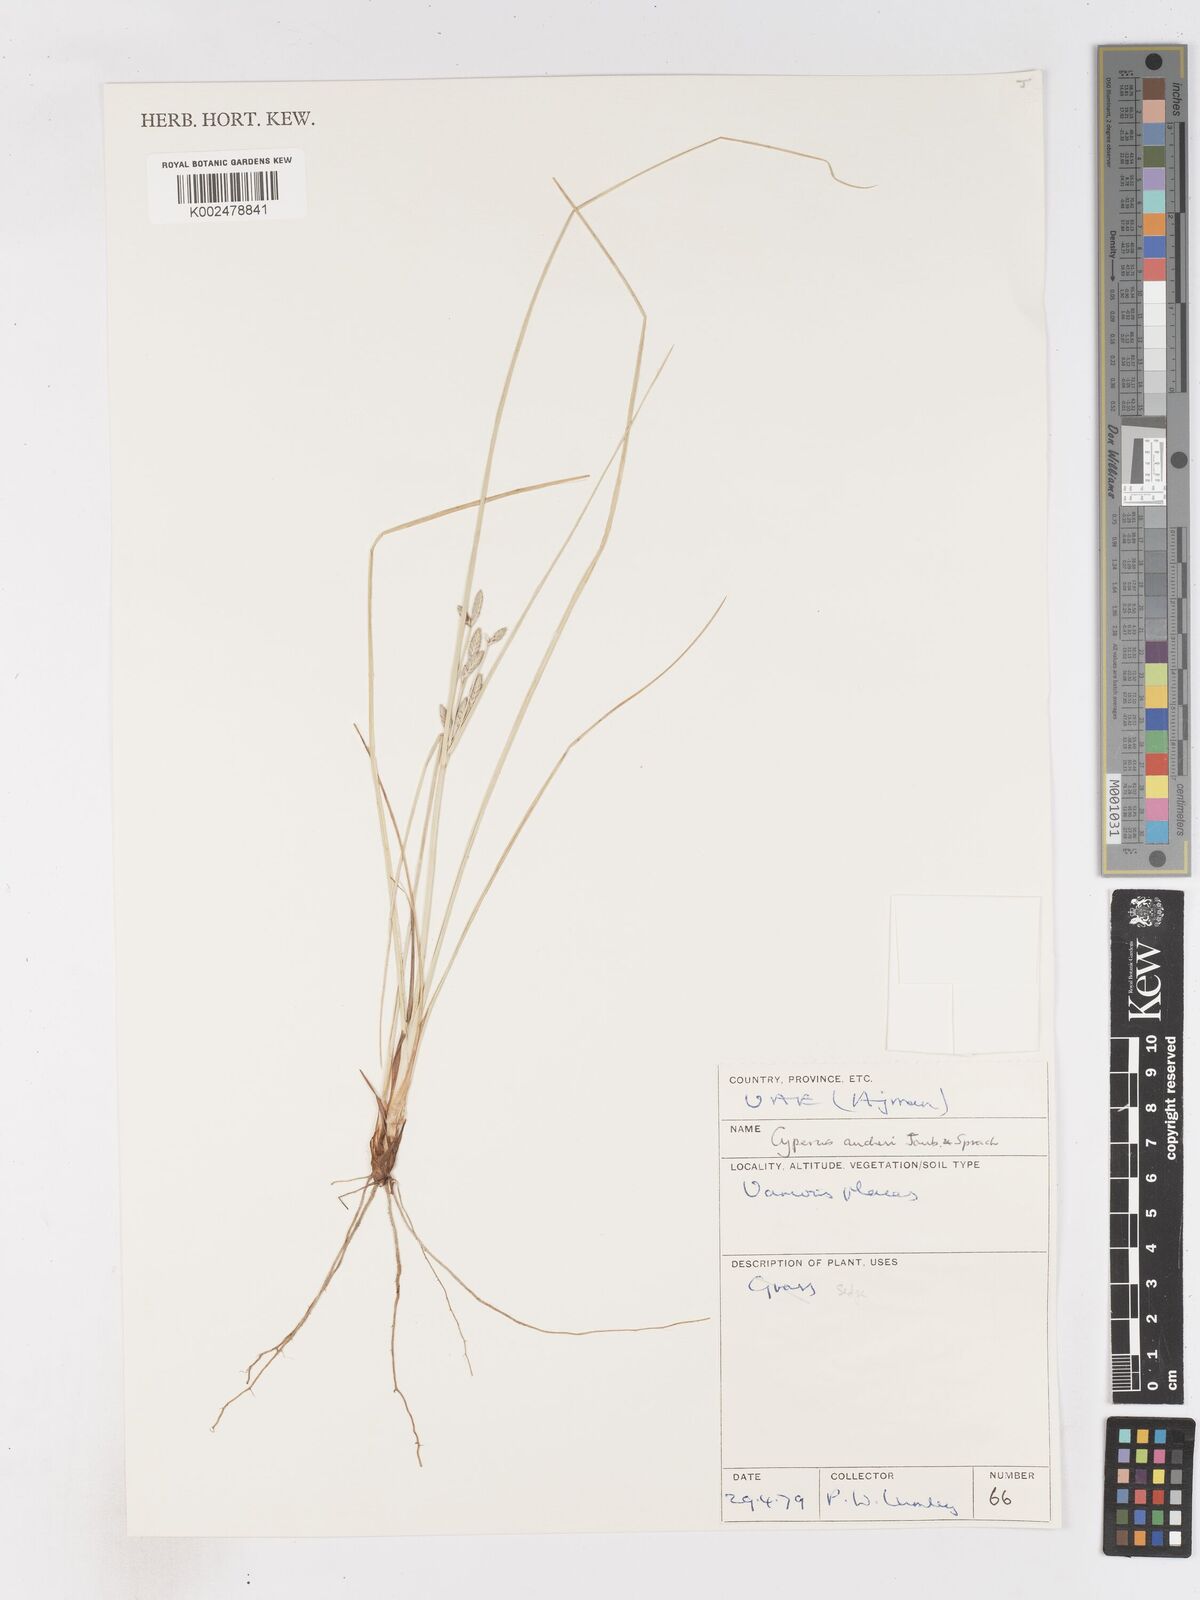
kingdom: Plantae
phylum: Tracheophyta
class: Liliopsida
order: Poales
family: Cyperaceae
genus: Cyperus
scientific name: Cyperus aucheri
